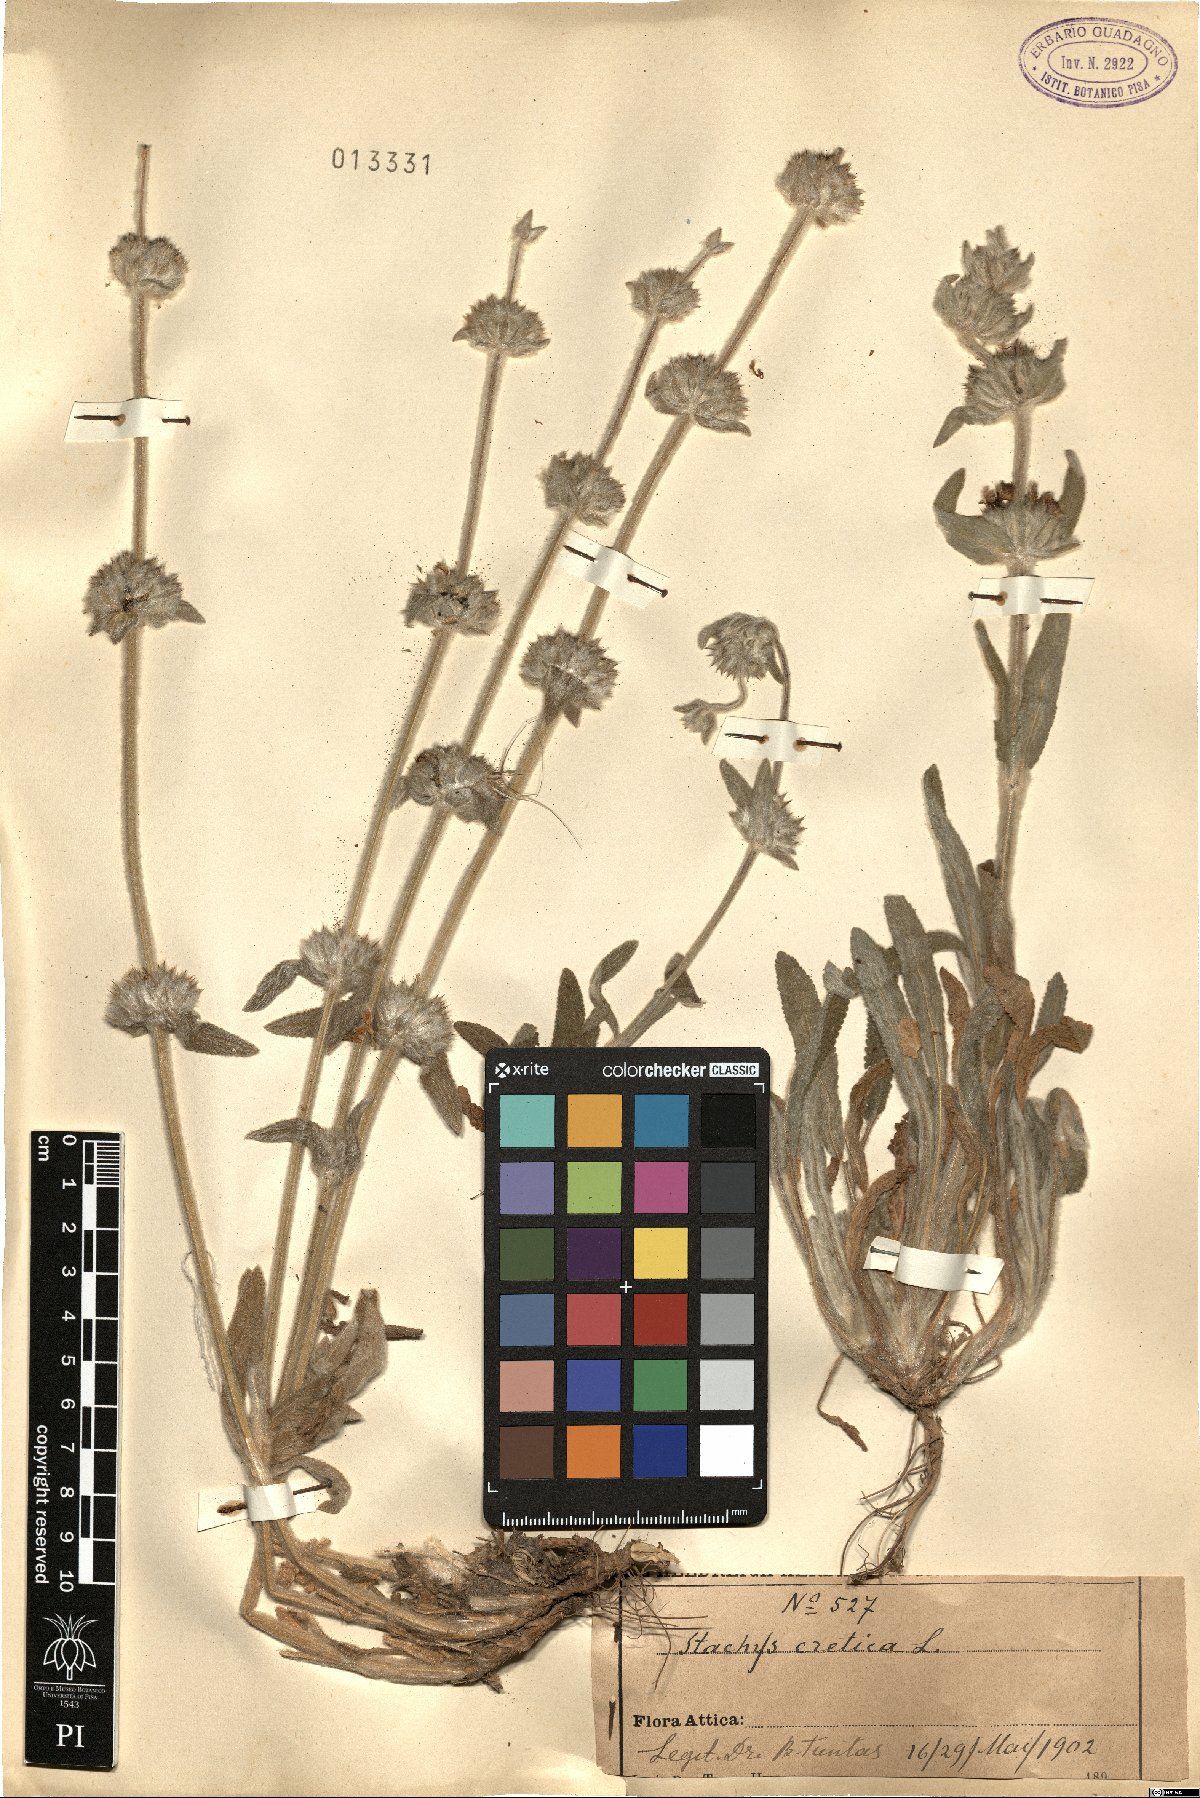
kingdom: Plantae
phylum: Tracheophyta
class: Magnoliopsida
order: Lamiales
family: Lamiaceae
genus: Stachys
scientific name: Stachys cretica
